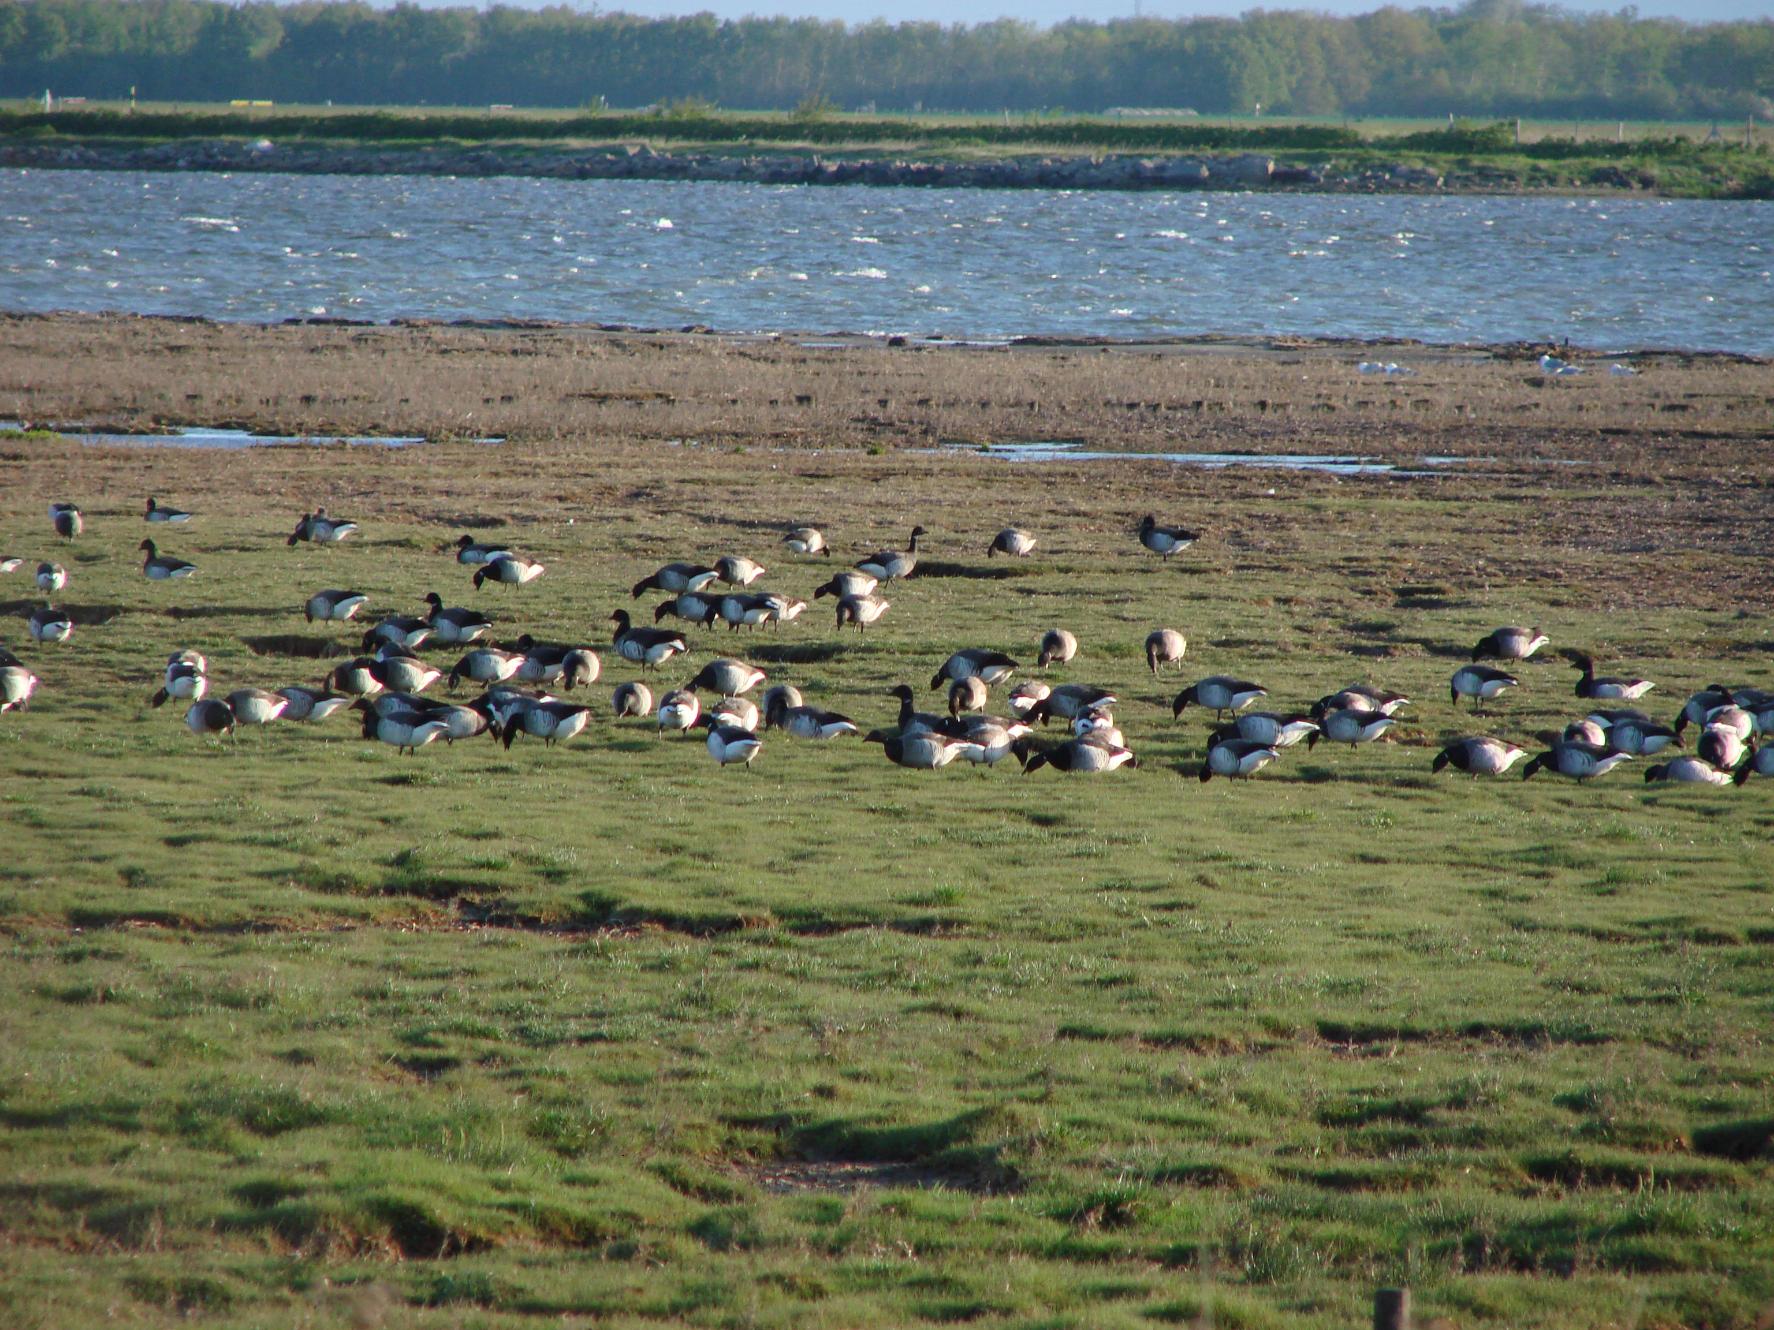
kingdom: Animalia
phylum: Chordata
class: Aves
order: Anseriformes
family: Anatidae
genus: Branta
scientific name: Branta bernicla
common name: Lysbuget knortegås
